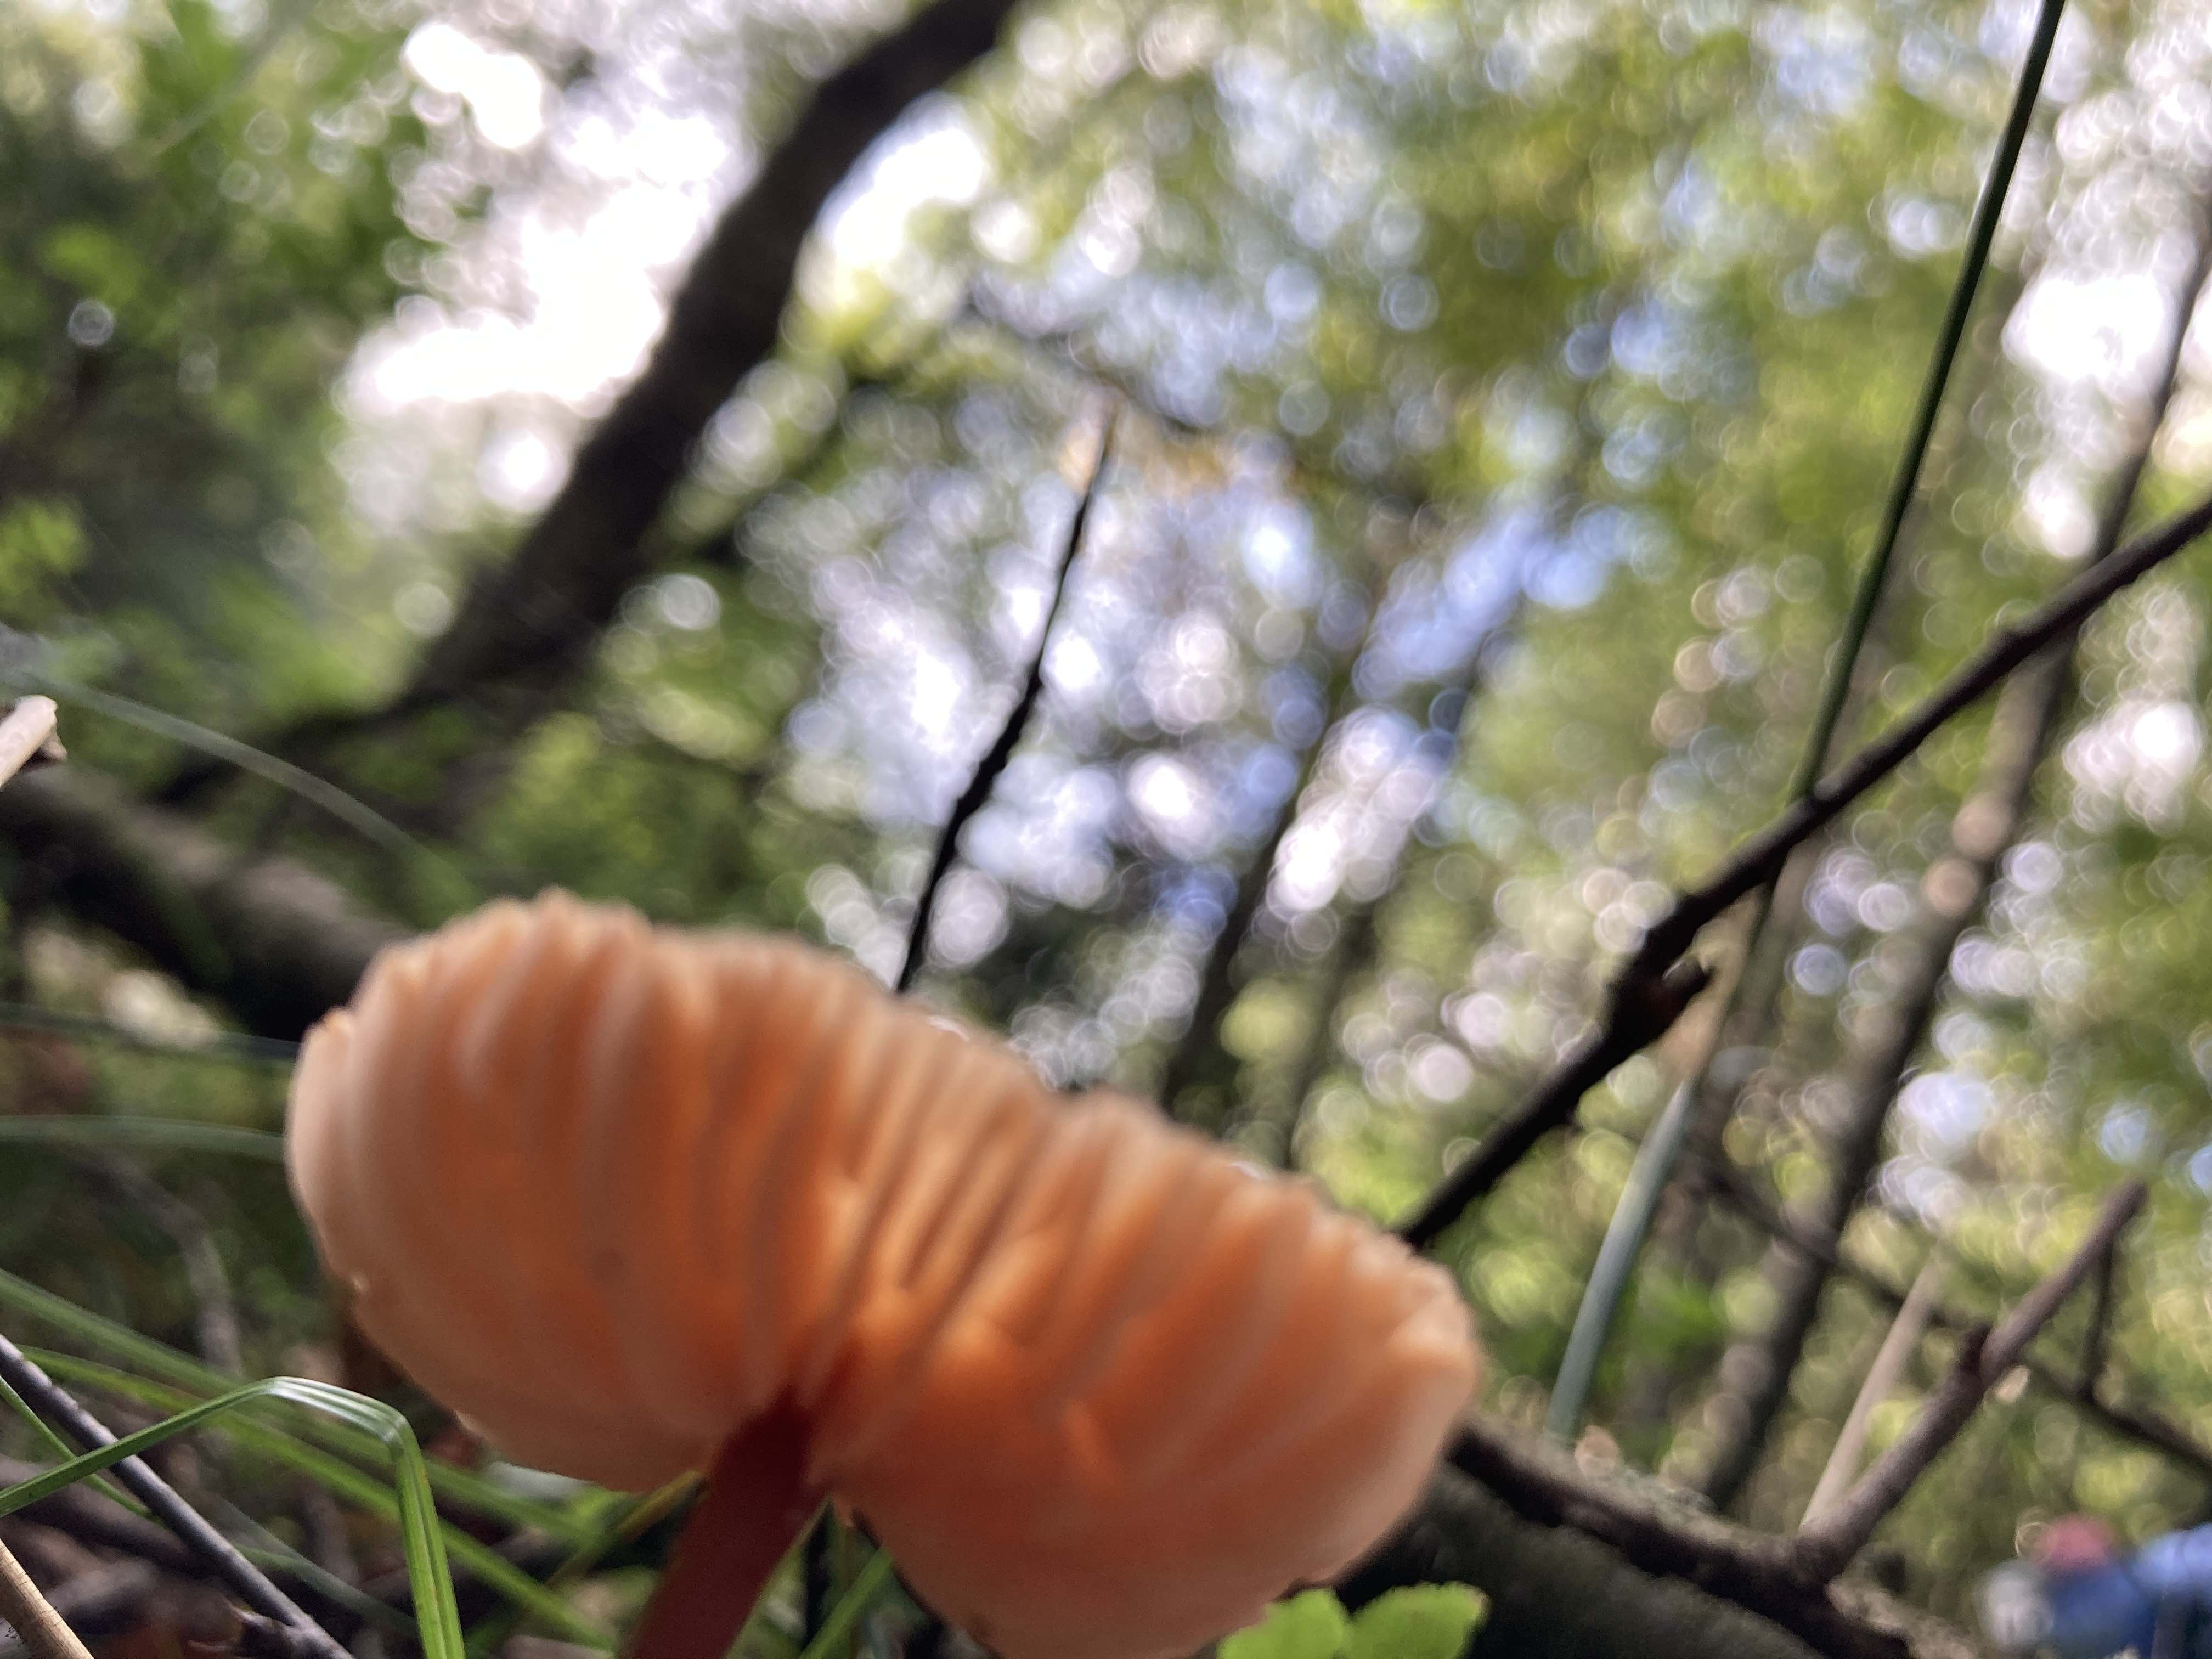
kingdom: Fungi
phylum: Basidiomycota
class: Agaricomycetes
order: Agaricales
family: Hydnangiaceae
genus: Laccaria
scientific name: Laccaria laccata
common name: rød ametysthat
